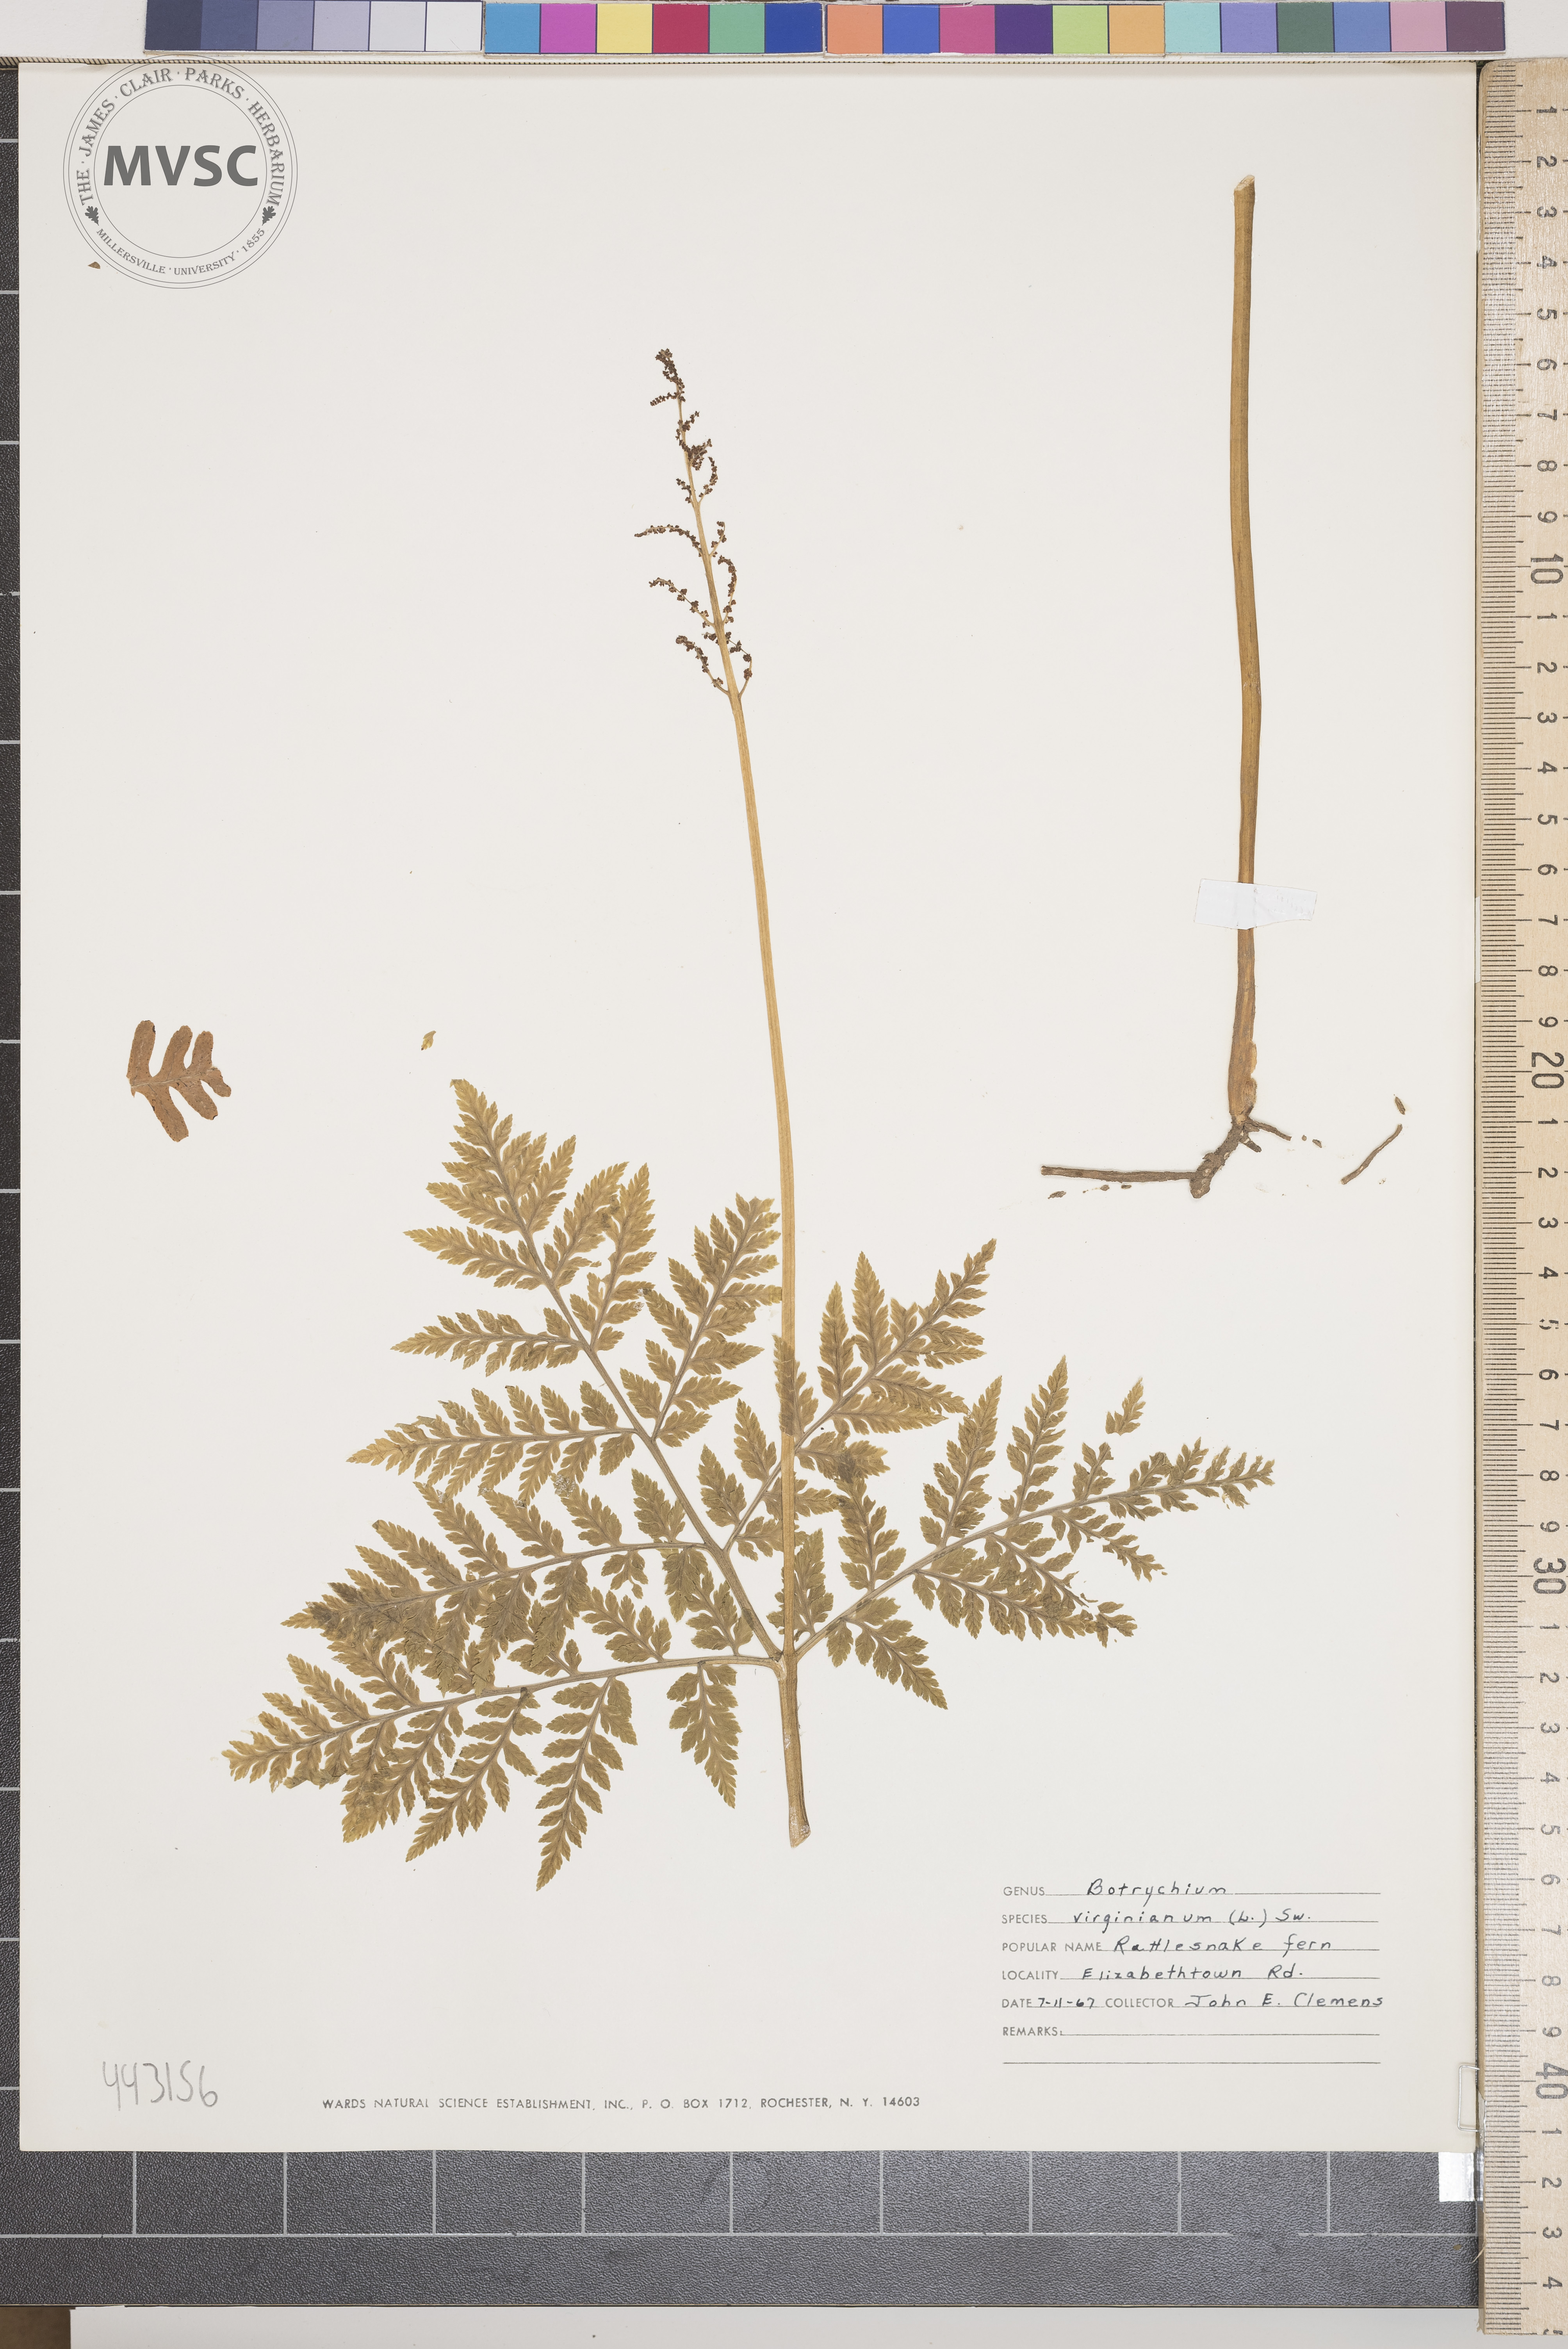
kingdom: Plantae
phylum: Tracheophyta
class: Polypodiopsida
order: Ophioglossales
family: Ophioglossaceae
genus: Botrypus
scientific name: Botrypus virginianus
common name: Rattlesnake fern
